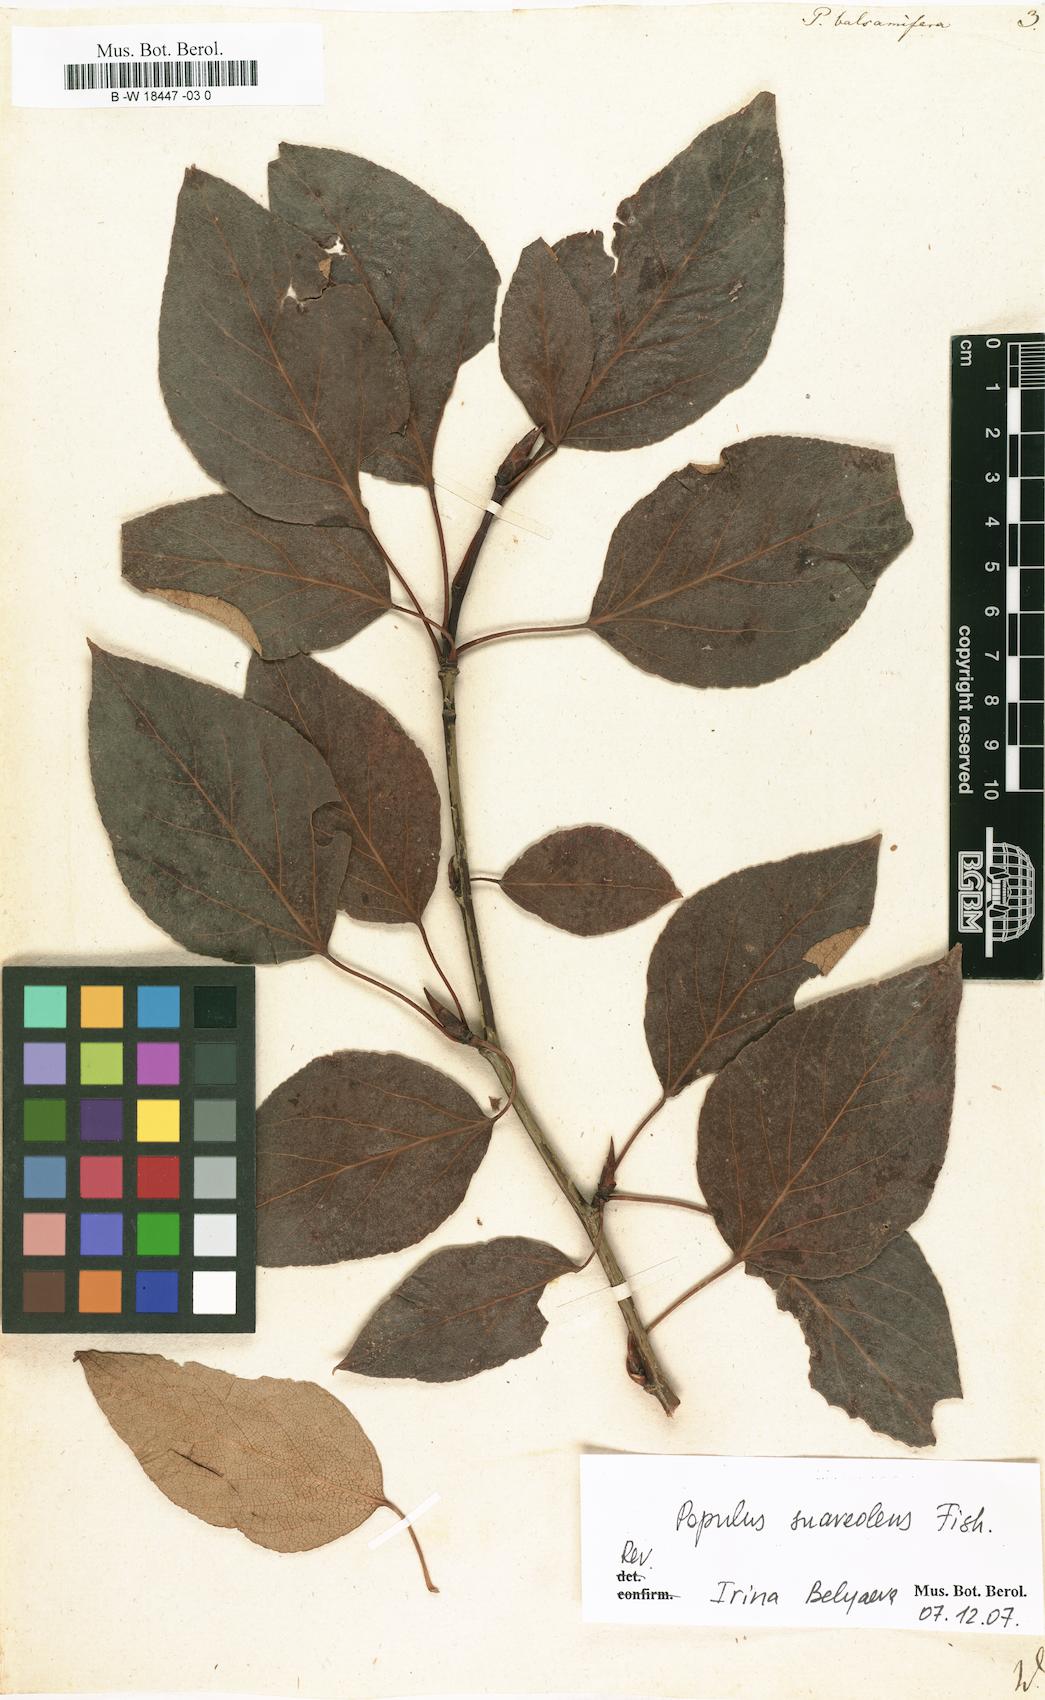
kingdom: Plantae
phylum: Tracheophyta
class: Magnoliopsida
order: Malpighiales
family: Salicaceae
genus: Populus
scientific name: Populus balsamifera
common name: Balsam poplar
